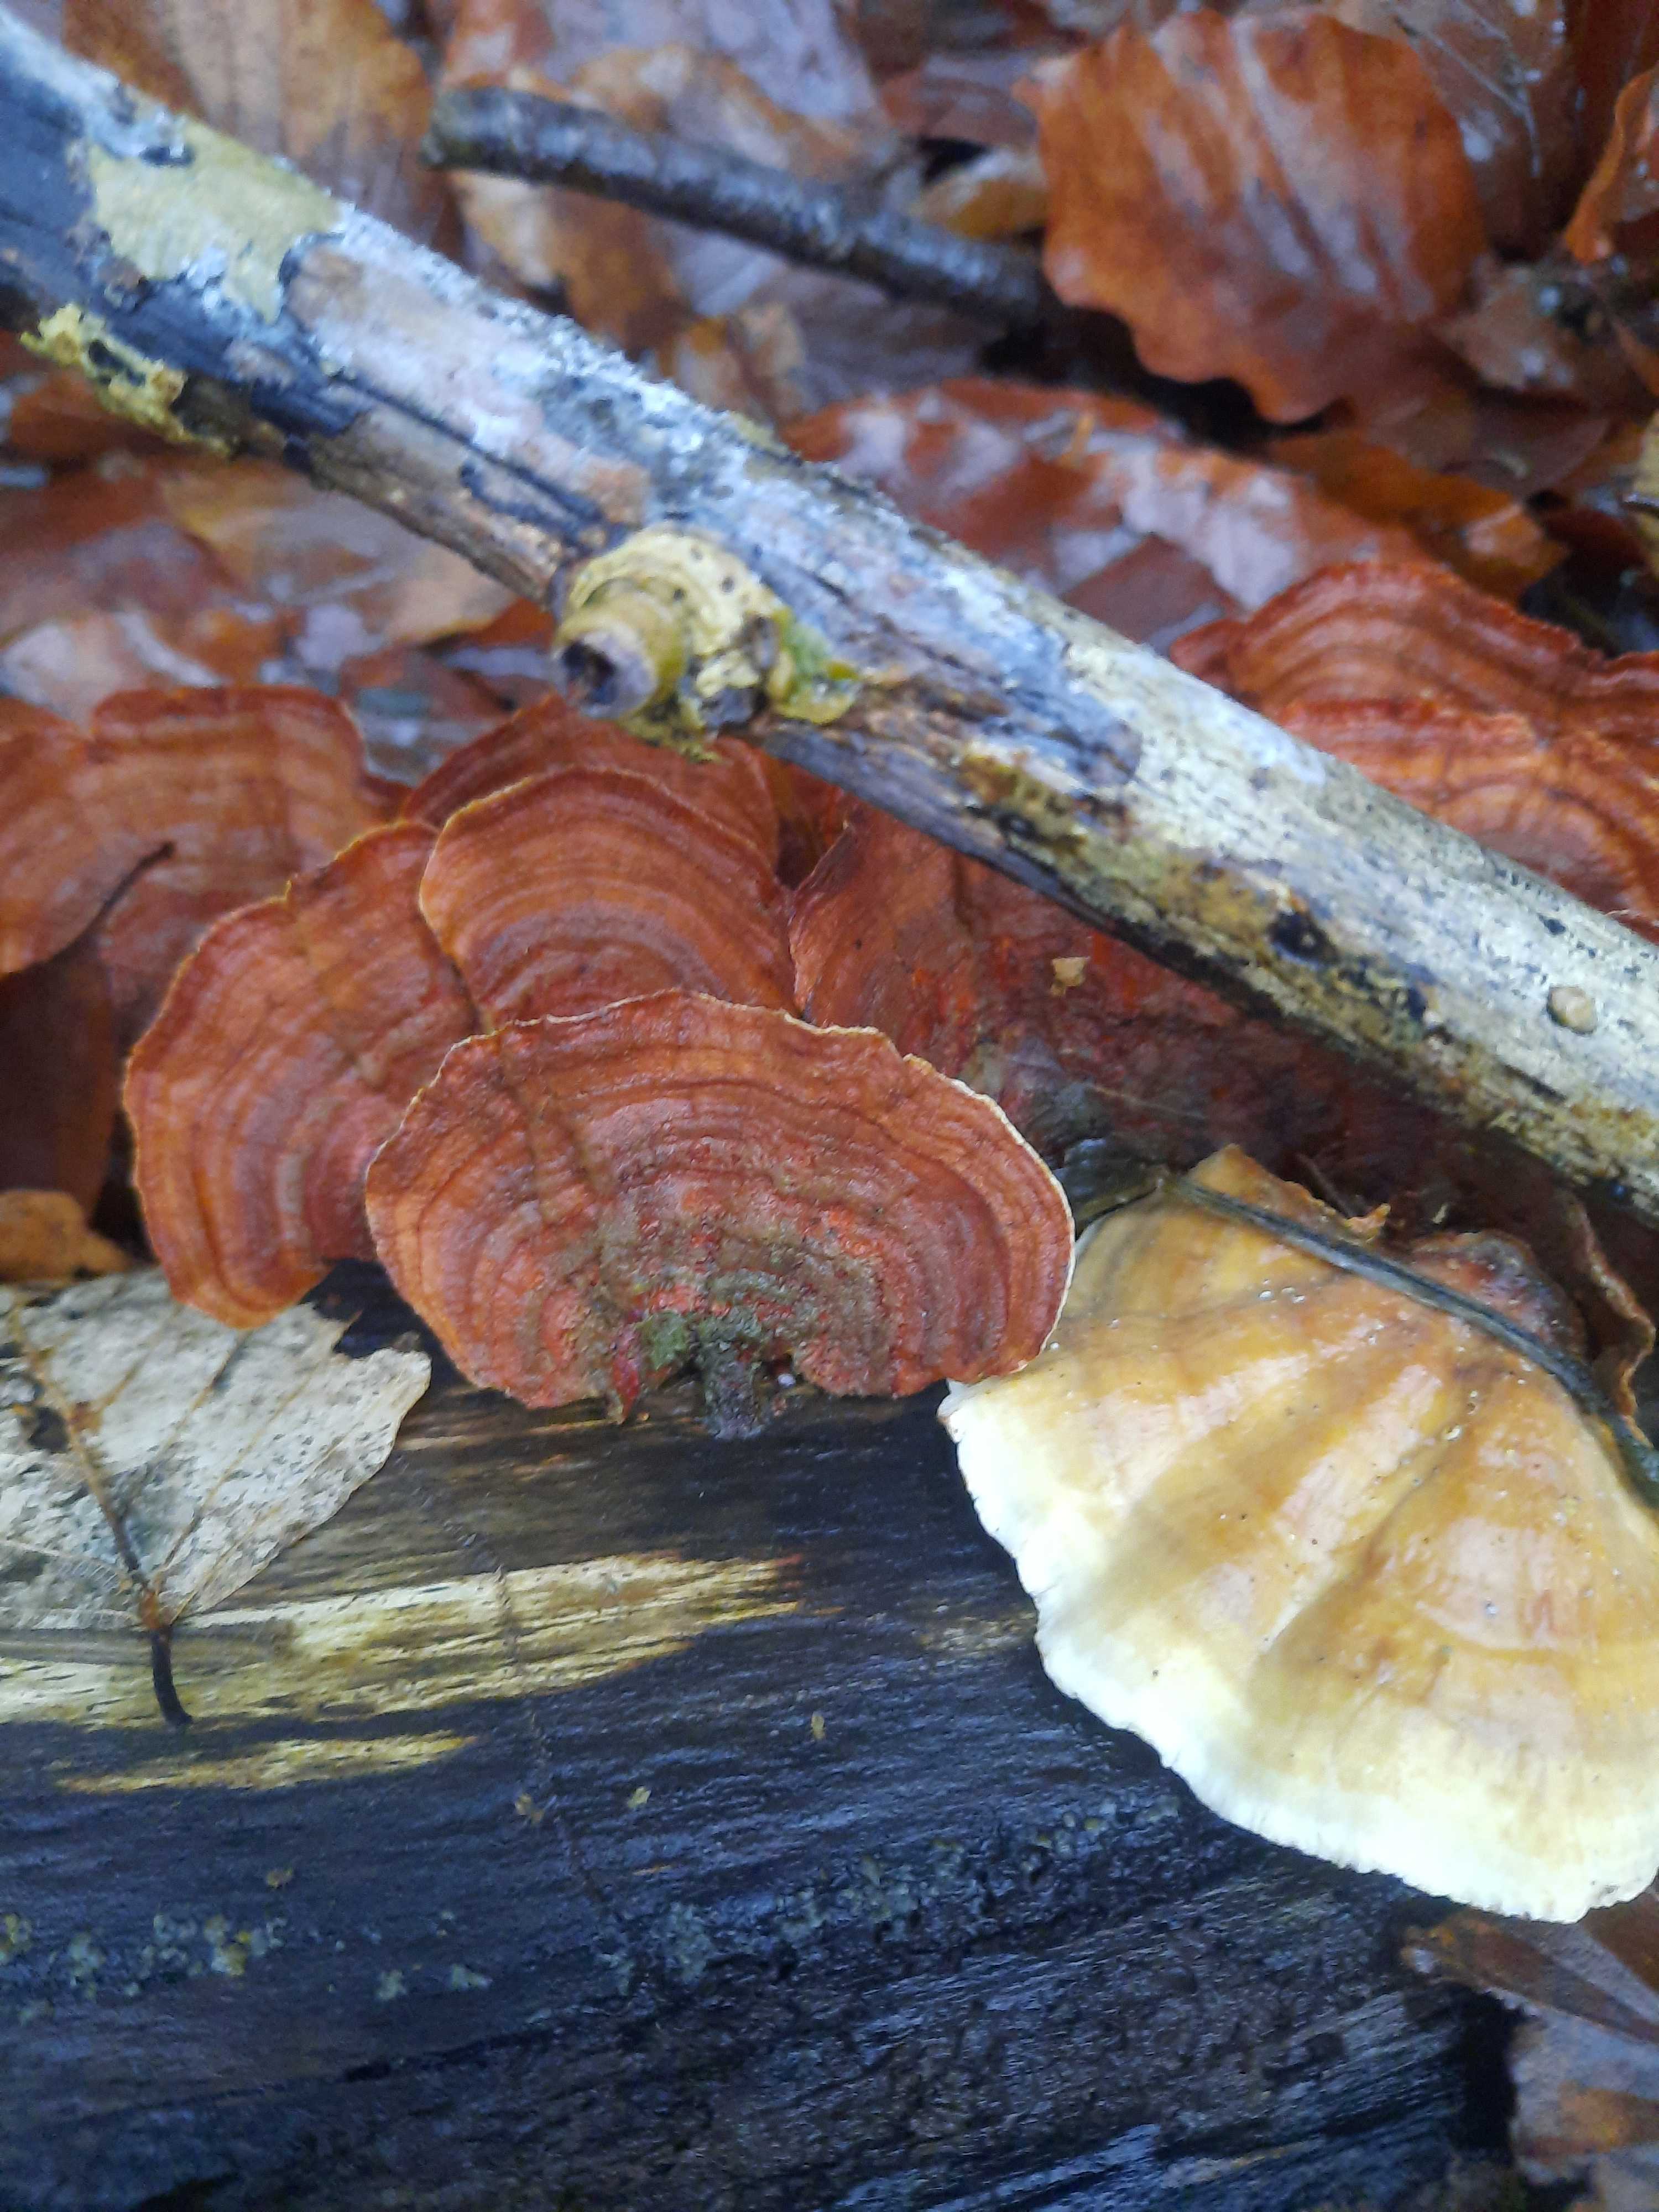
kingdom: Fungi
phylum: Basidiomycota
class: Agaricomycetes
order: Russulales
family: Stereaceae
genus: Stereum
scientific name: Stereum subtomentosum
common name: smuk lædersvamp
